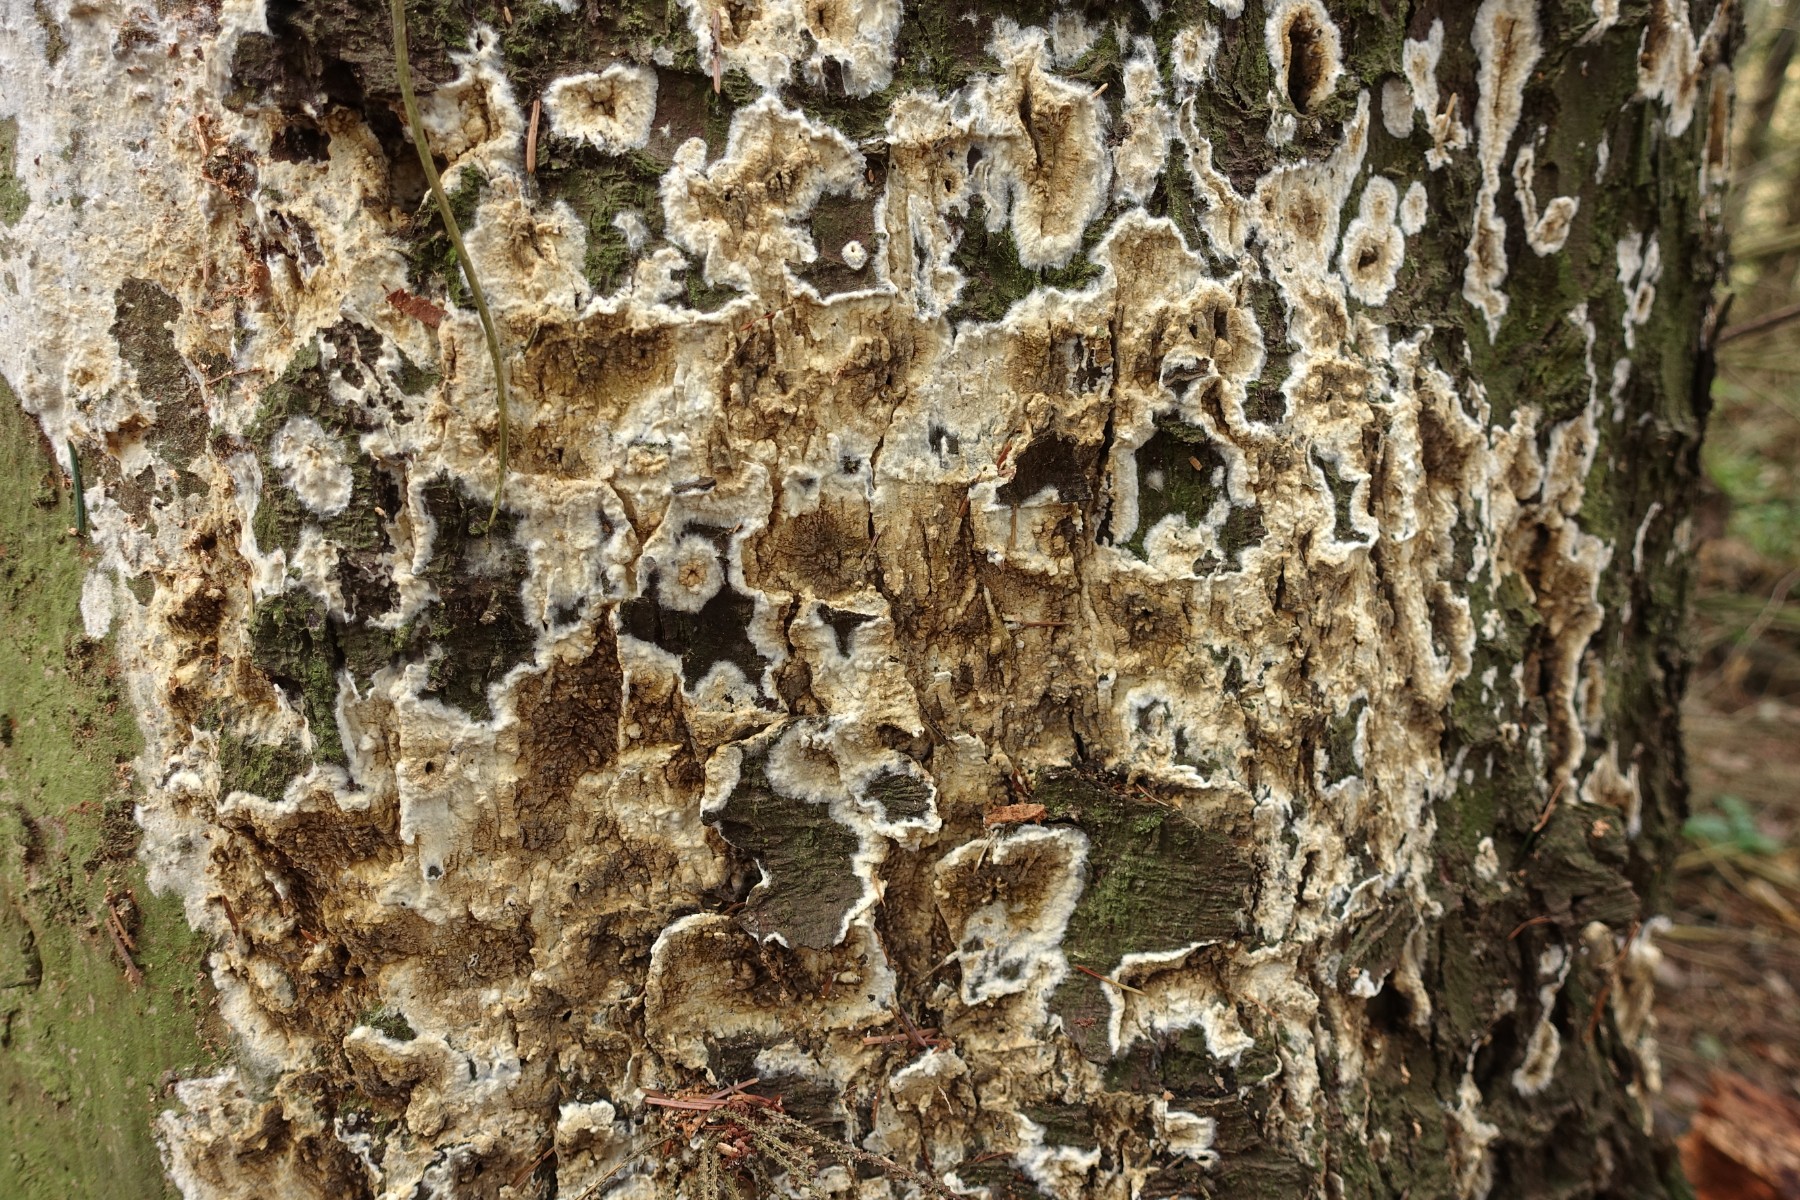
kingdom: Fungi
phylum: Basidiomycota
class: Agaricomycetes
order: Boletales
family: Coniophoraceae
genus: Coniophora
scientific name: Coniophora puteana
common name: gul tømmersvamp
